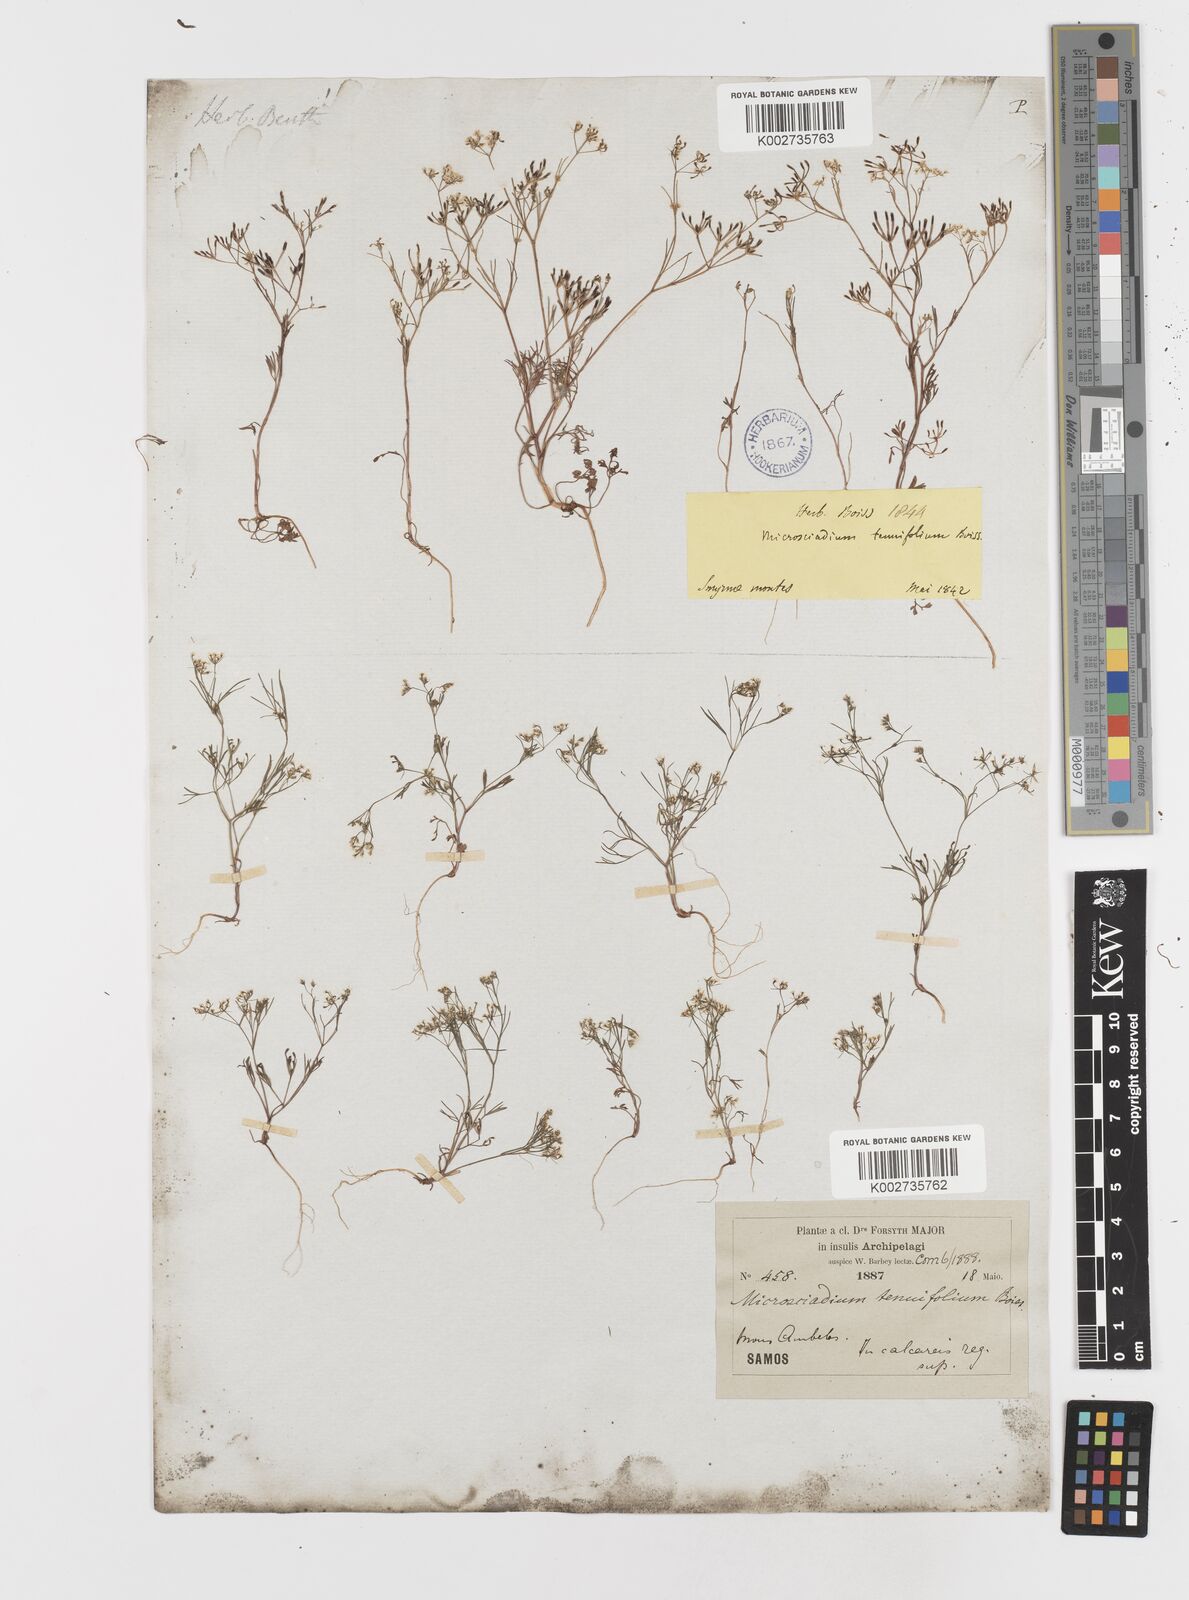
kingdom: Plantae
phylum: Tracheophyta
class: Magnoliopsida
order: Apiales
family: Apiaceae
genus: Microsciadium
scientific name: Microsciadium minutum
